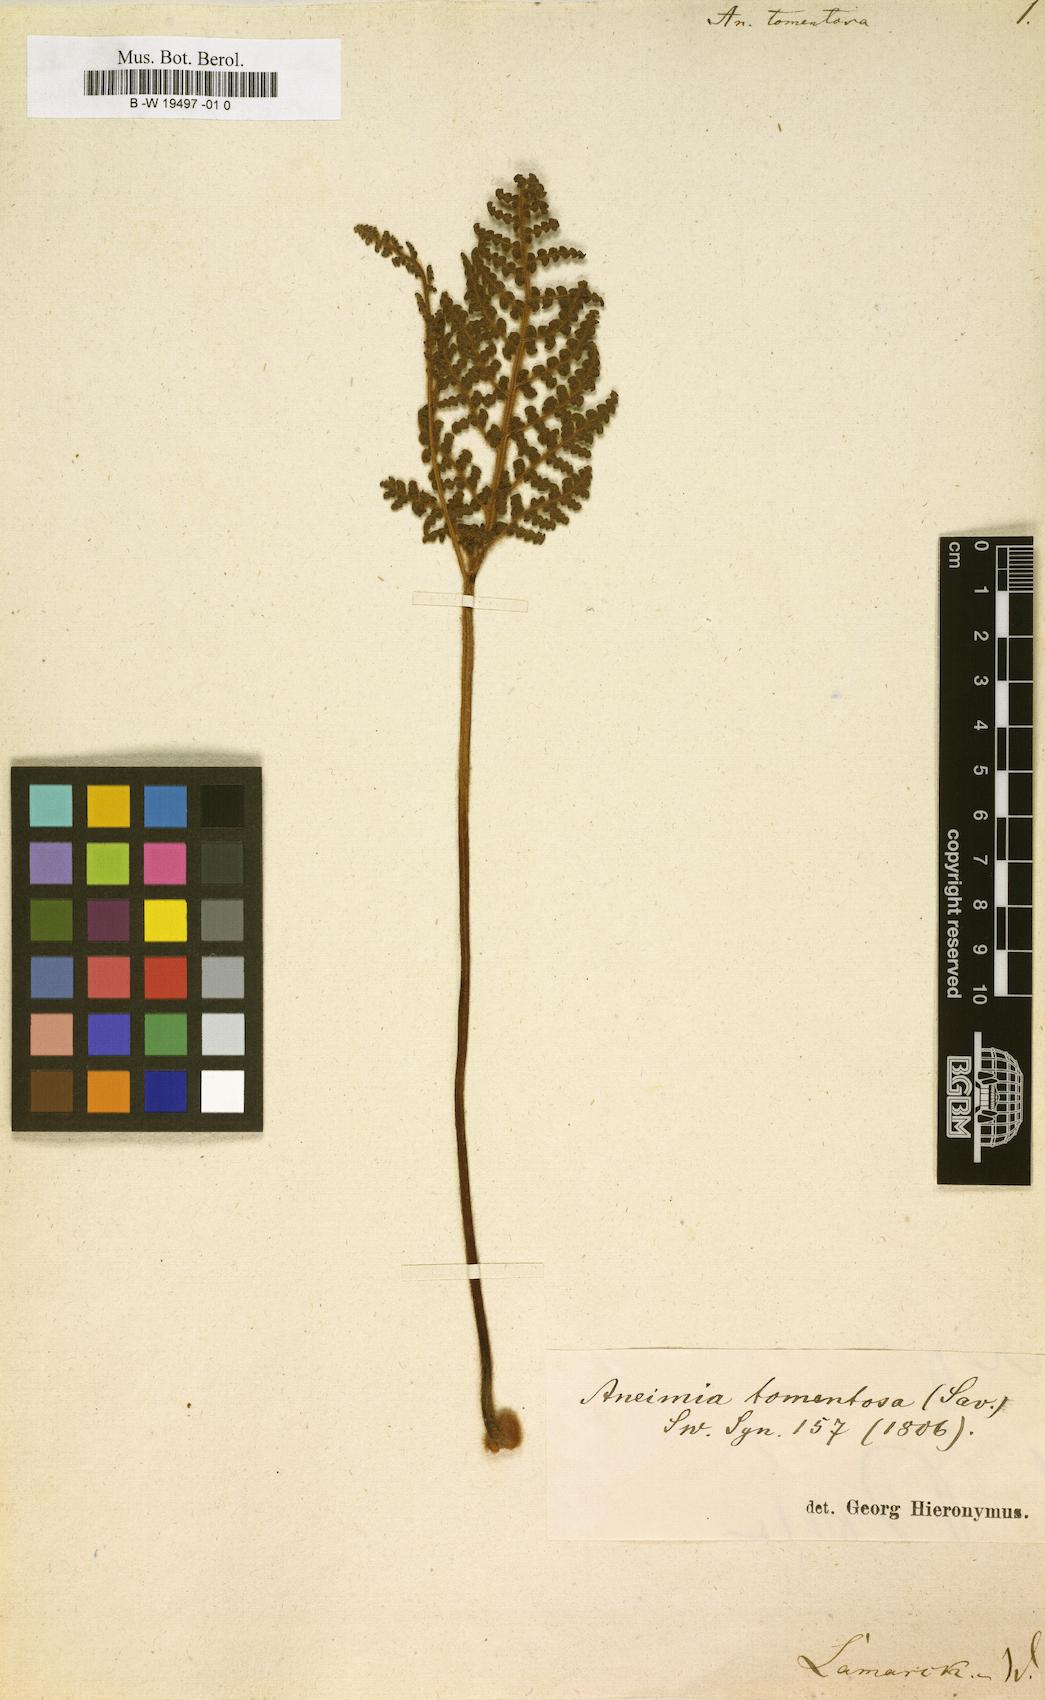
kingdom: Plantae
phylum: Tracheophyta
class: Polypodiopsida
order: Schizaeales
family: Anemiaceae
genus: Anemia
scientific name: Anemia tomentosa
